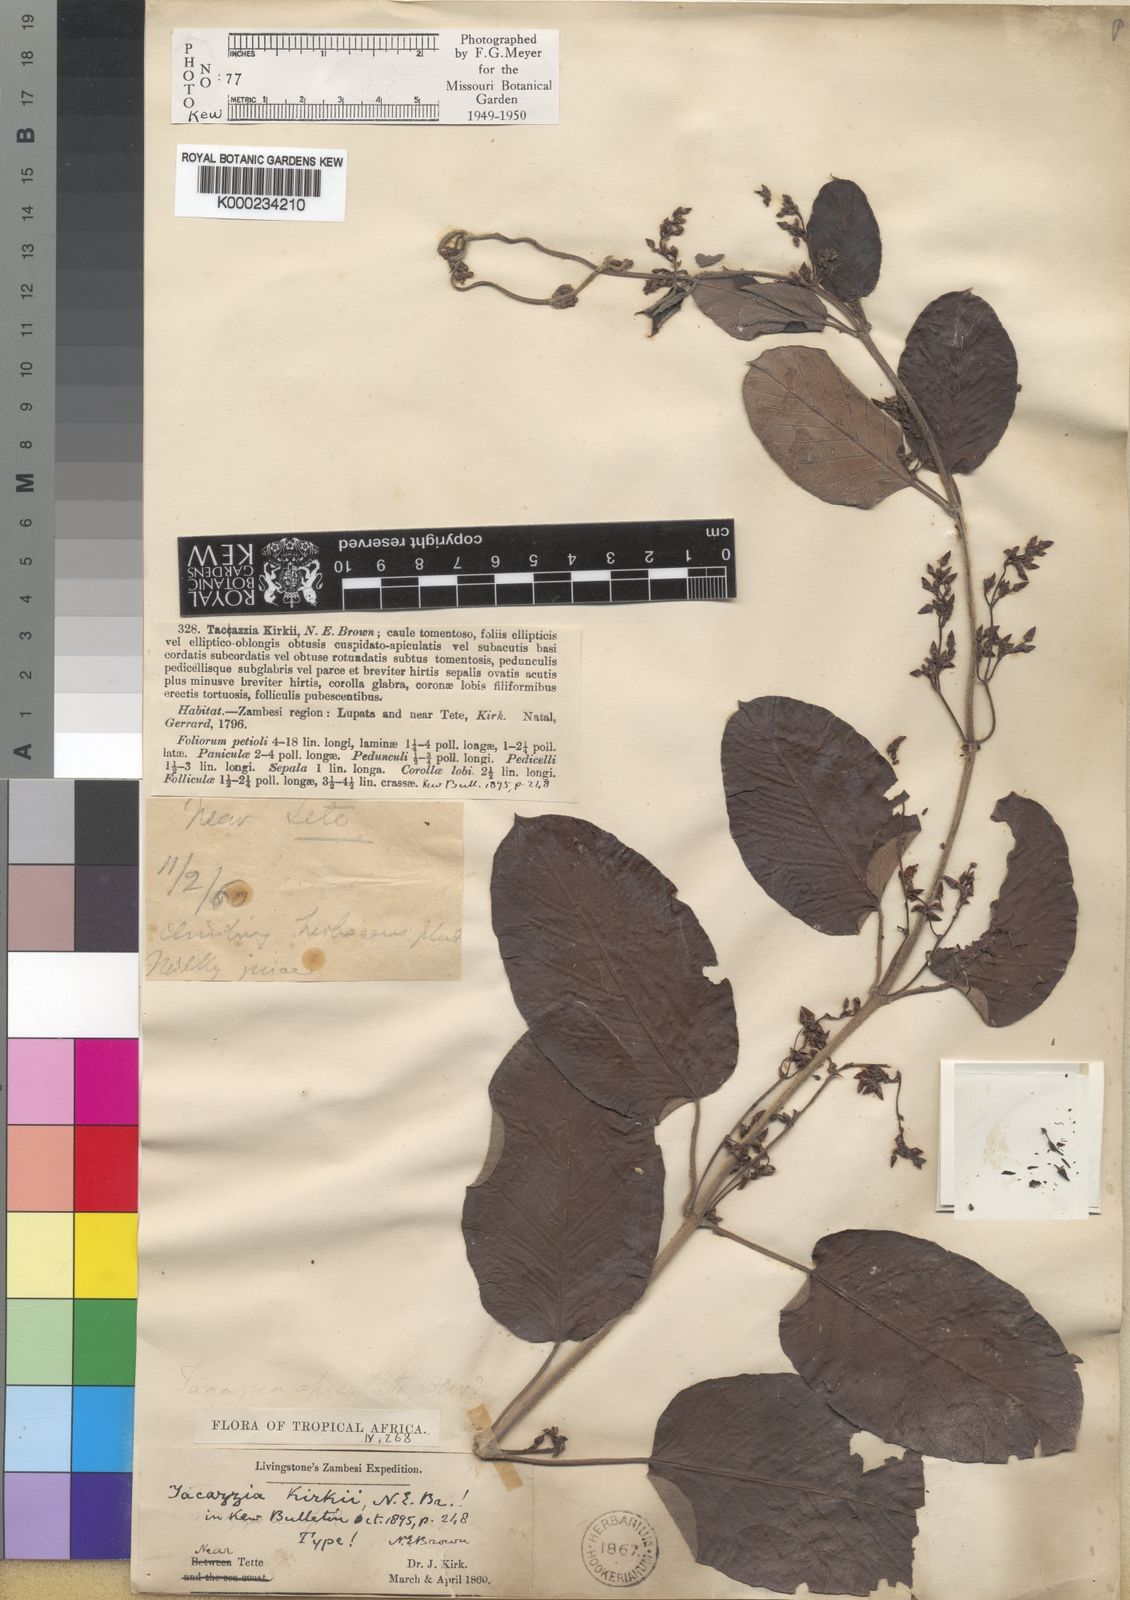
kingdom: Plantae
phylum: Tracheophyta
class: Magnoliopsida
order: Gentianales
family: Apocynaceae
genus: Tacazzea
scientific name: Tacazzea apiculata
